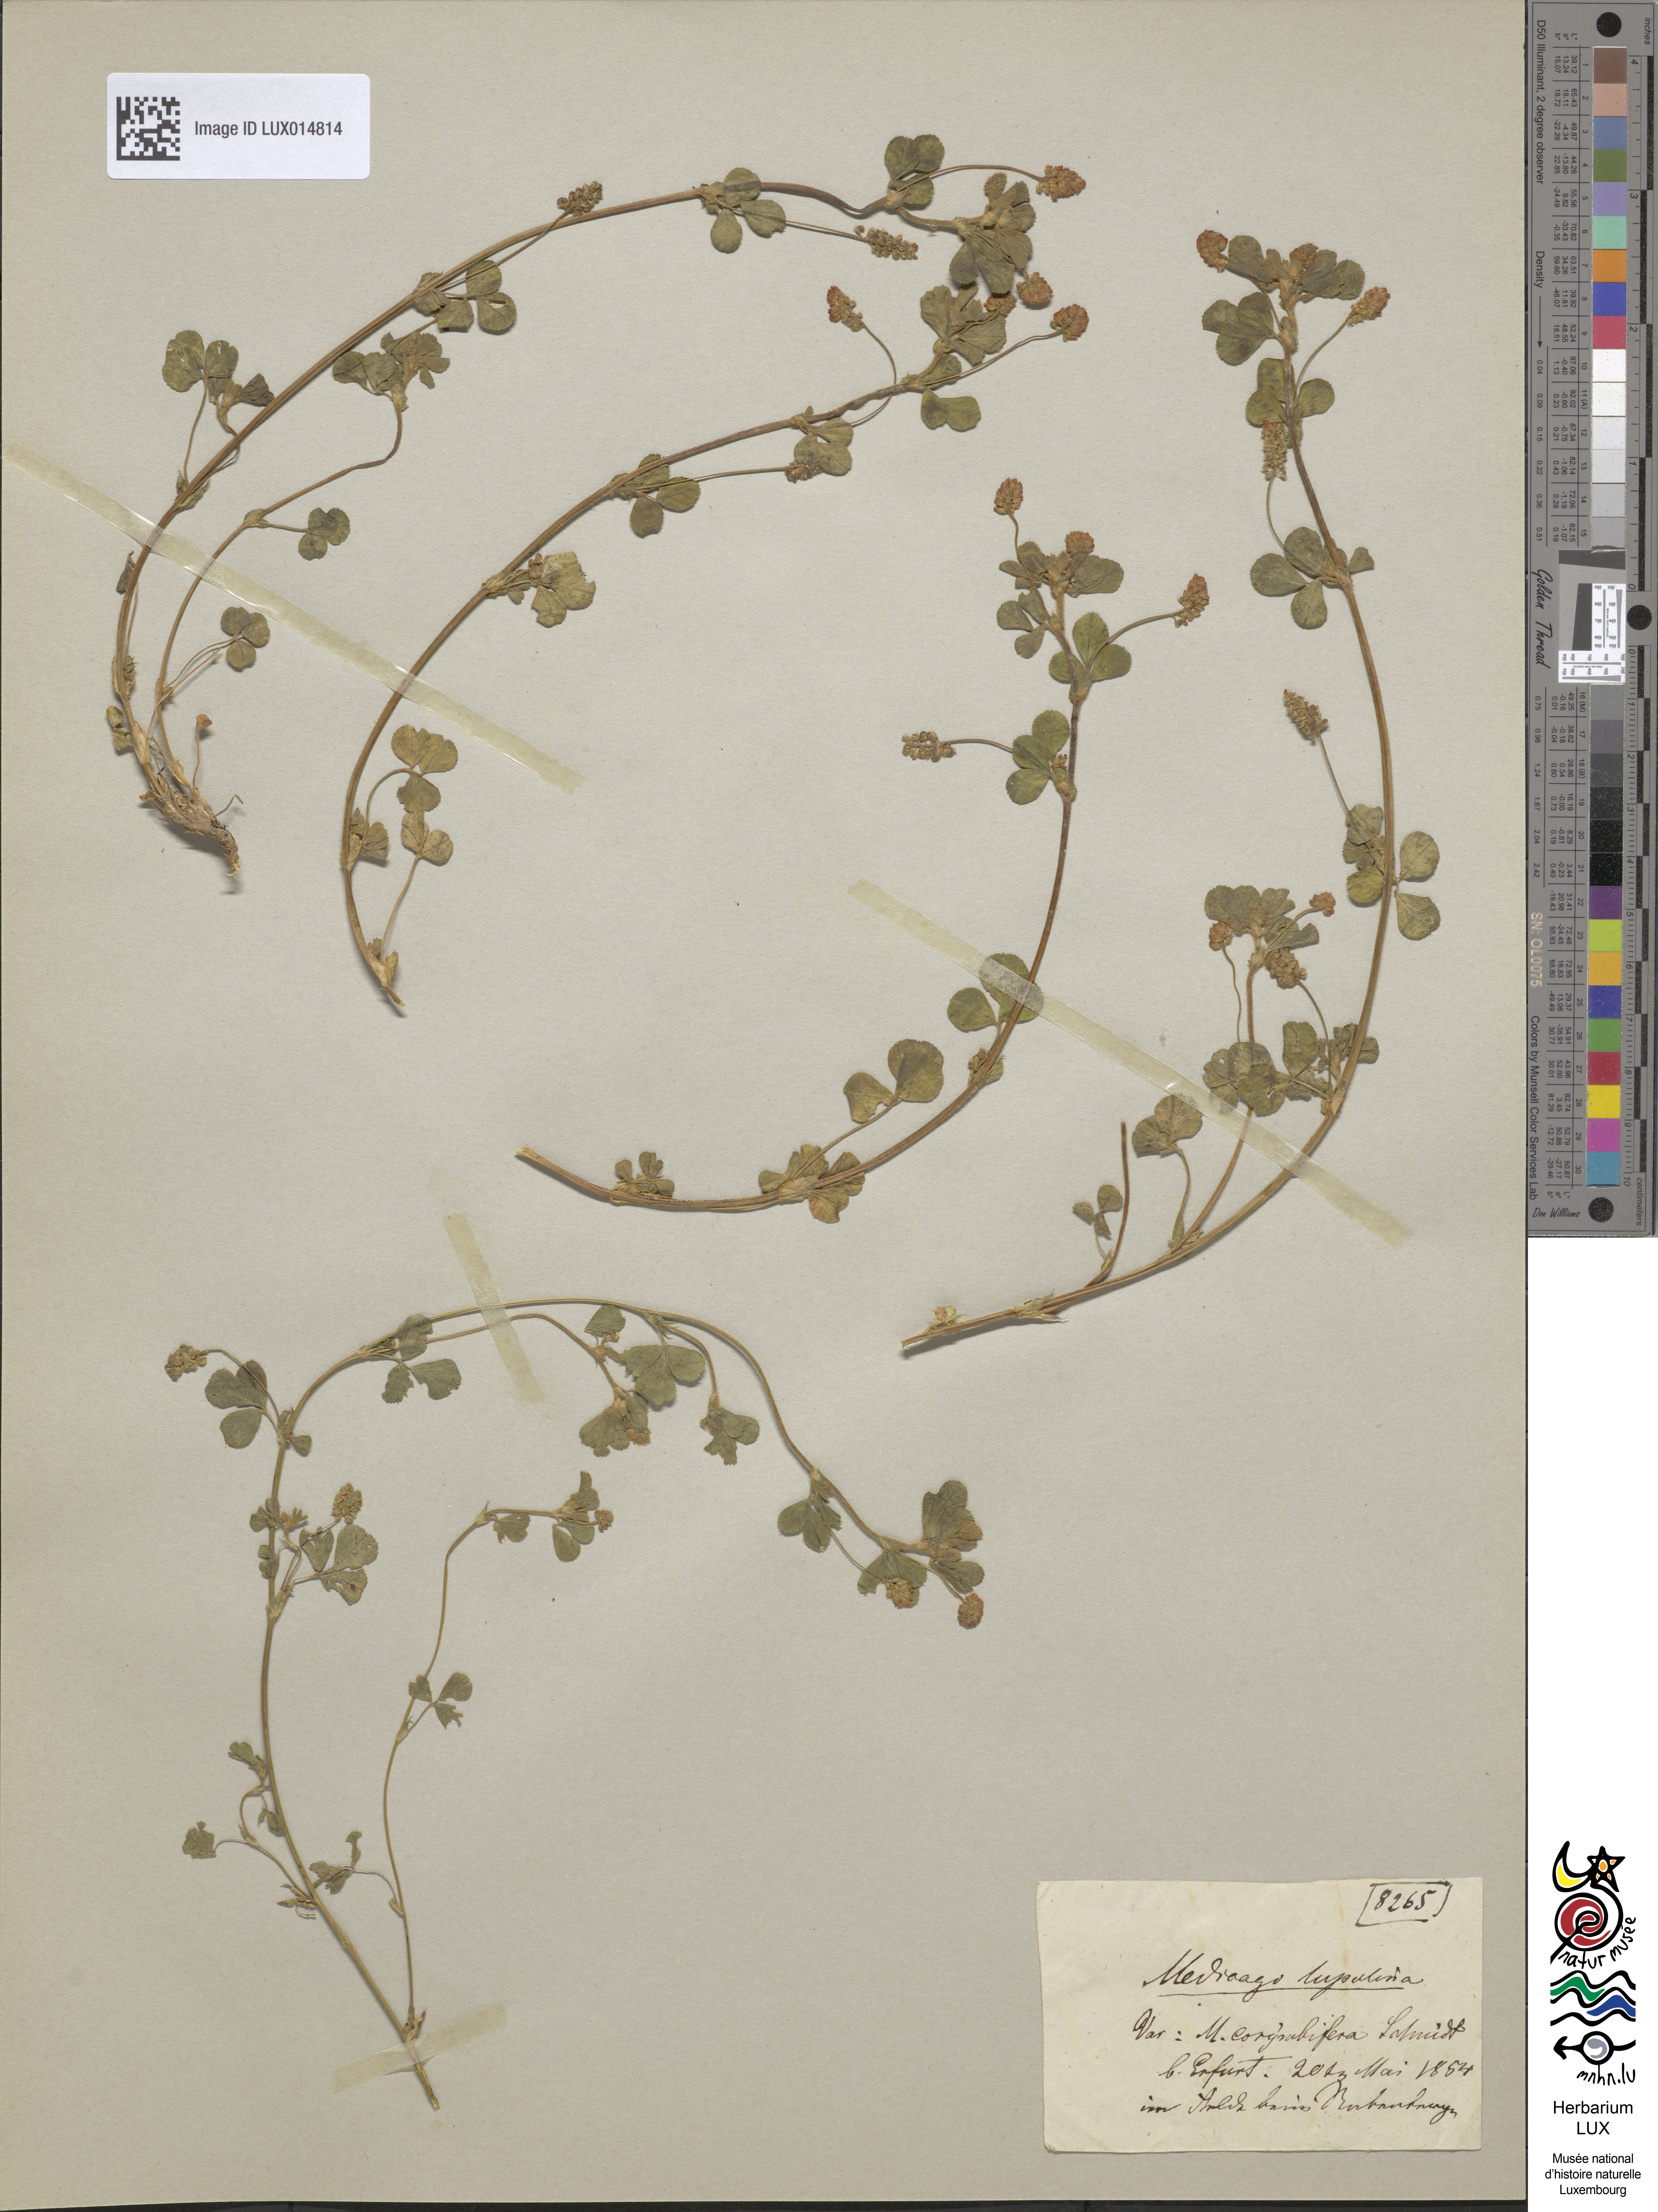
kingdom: Plantae
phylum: Tracheophyta
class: Magnoliopsida
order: Fabales
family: Fabaceae
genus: Medicago
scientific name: Medicago lupulina
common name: Black medick
